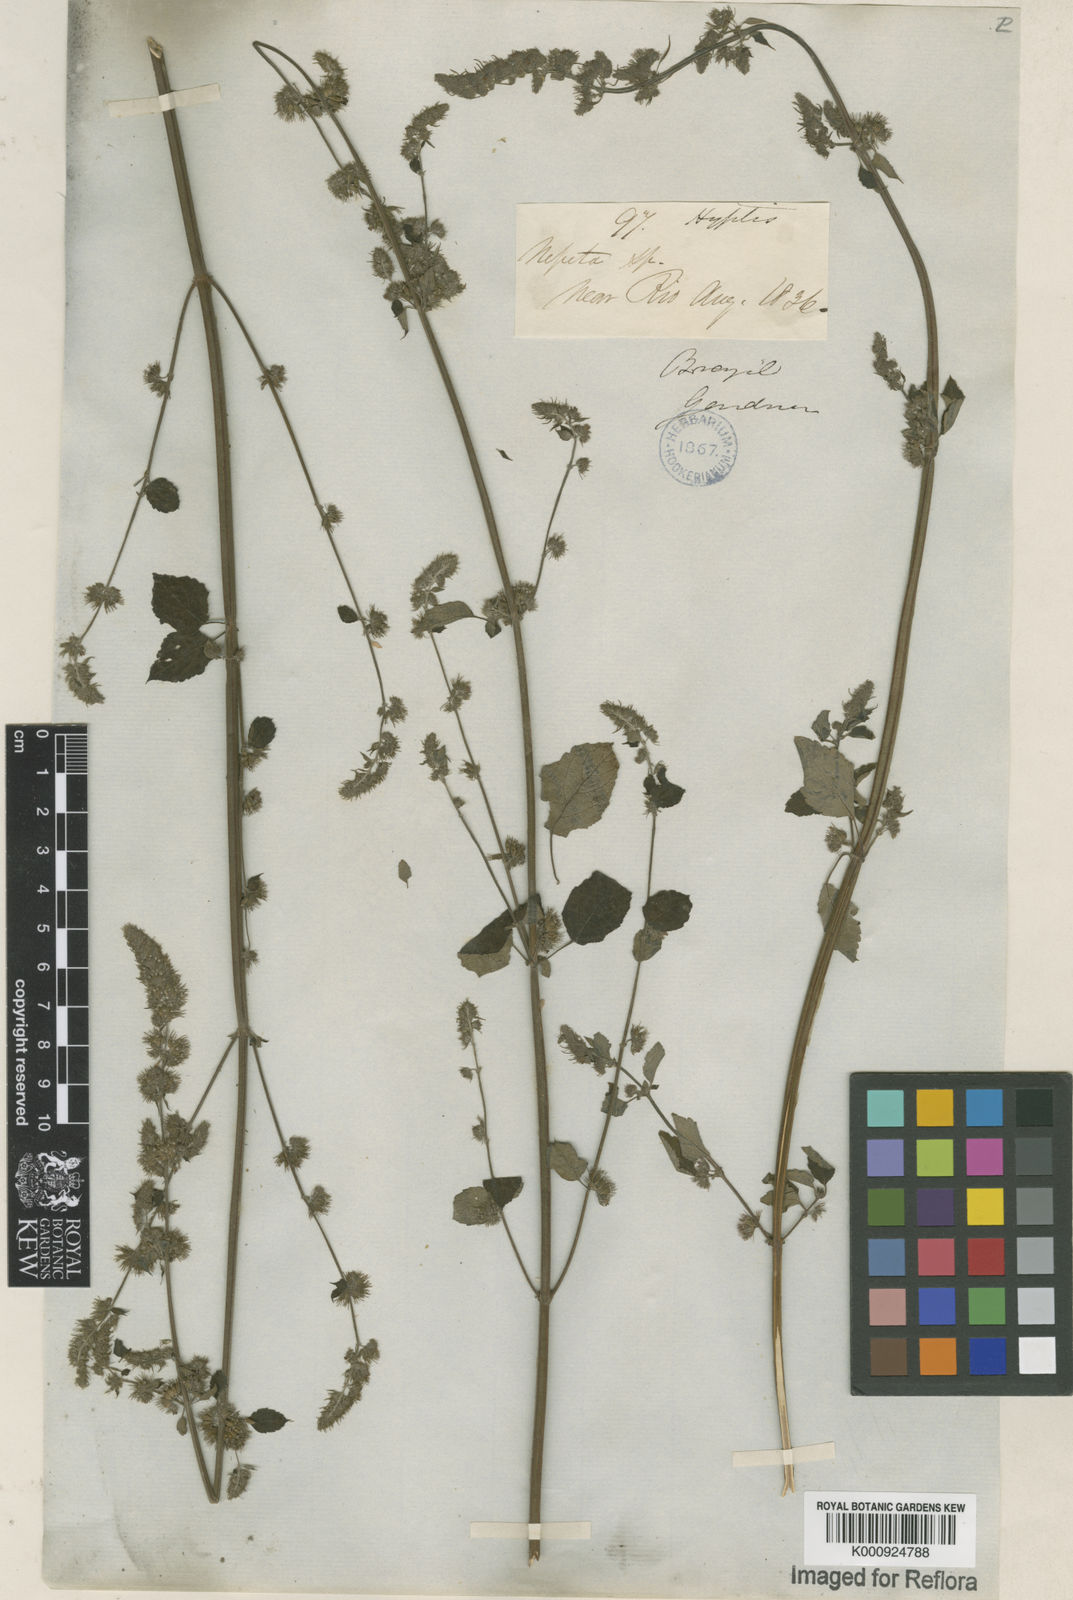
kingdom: Plantae
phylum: Tracheophyta
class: Magnoliopsida
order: Lamiales
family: Lamiaceae
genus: Mesosphaerum
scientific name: Mesosphaerum pectinatum
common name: Comb hyptis
